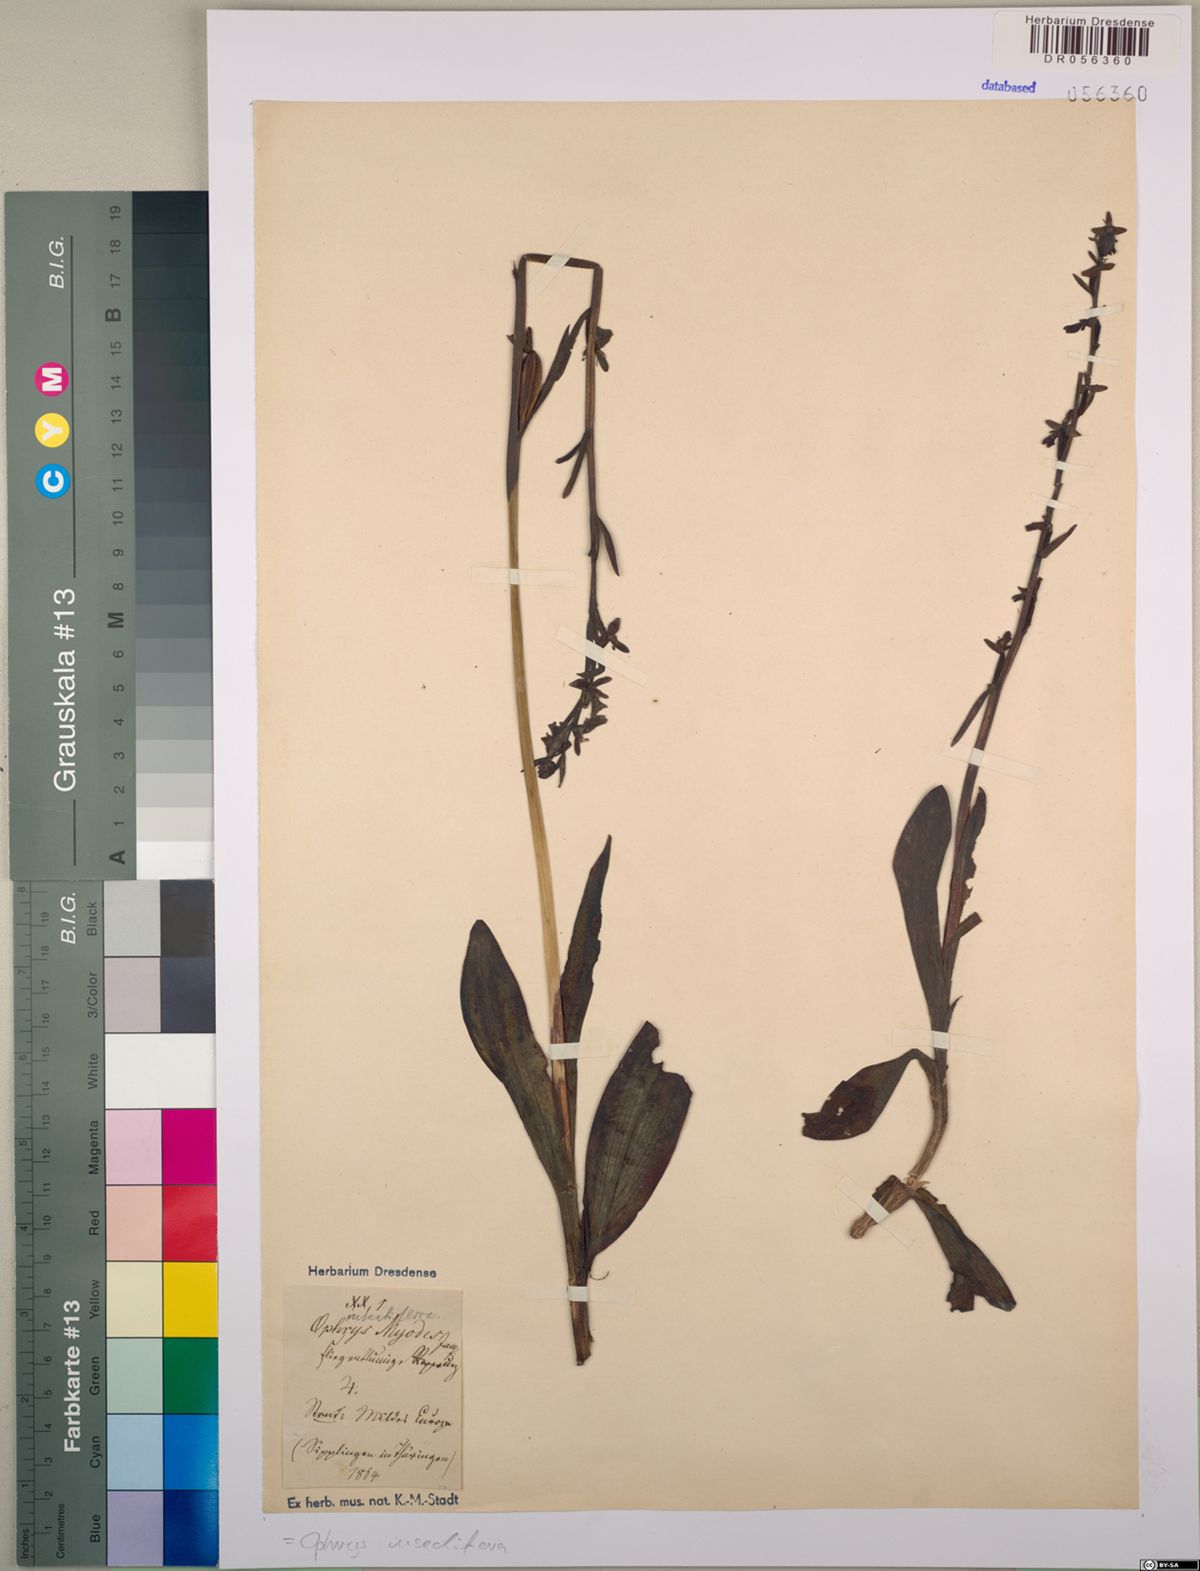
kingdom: Plantae
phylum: Tracheophyta
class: Liliopsida
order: Asparagales
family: Orchidaceae
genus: Ophrys
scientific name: Ophrys insectifera
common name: Fly orchid
